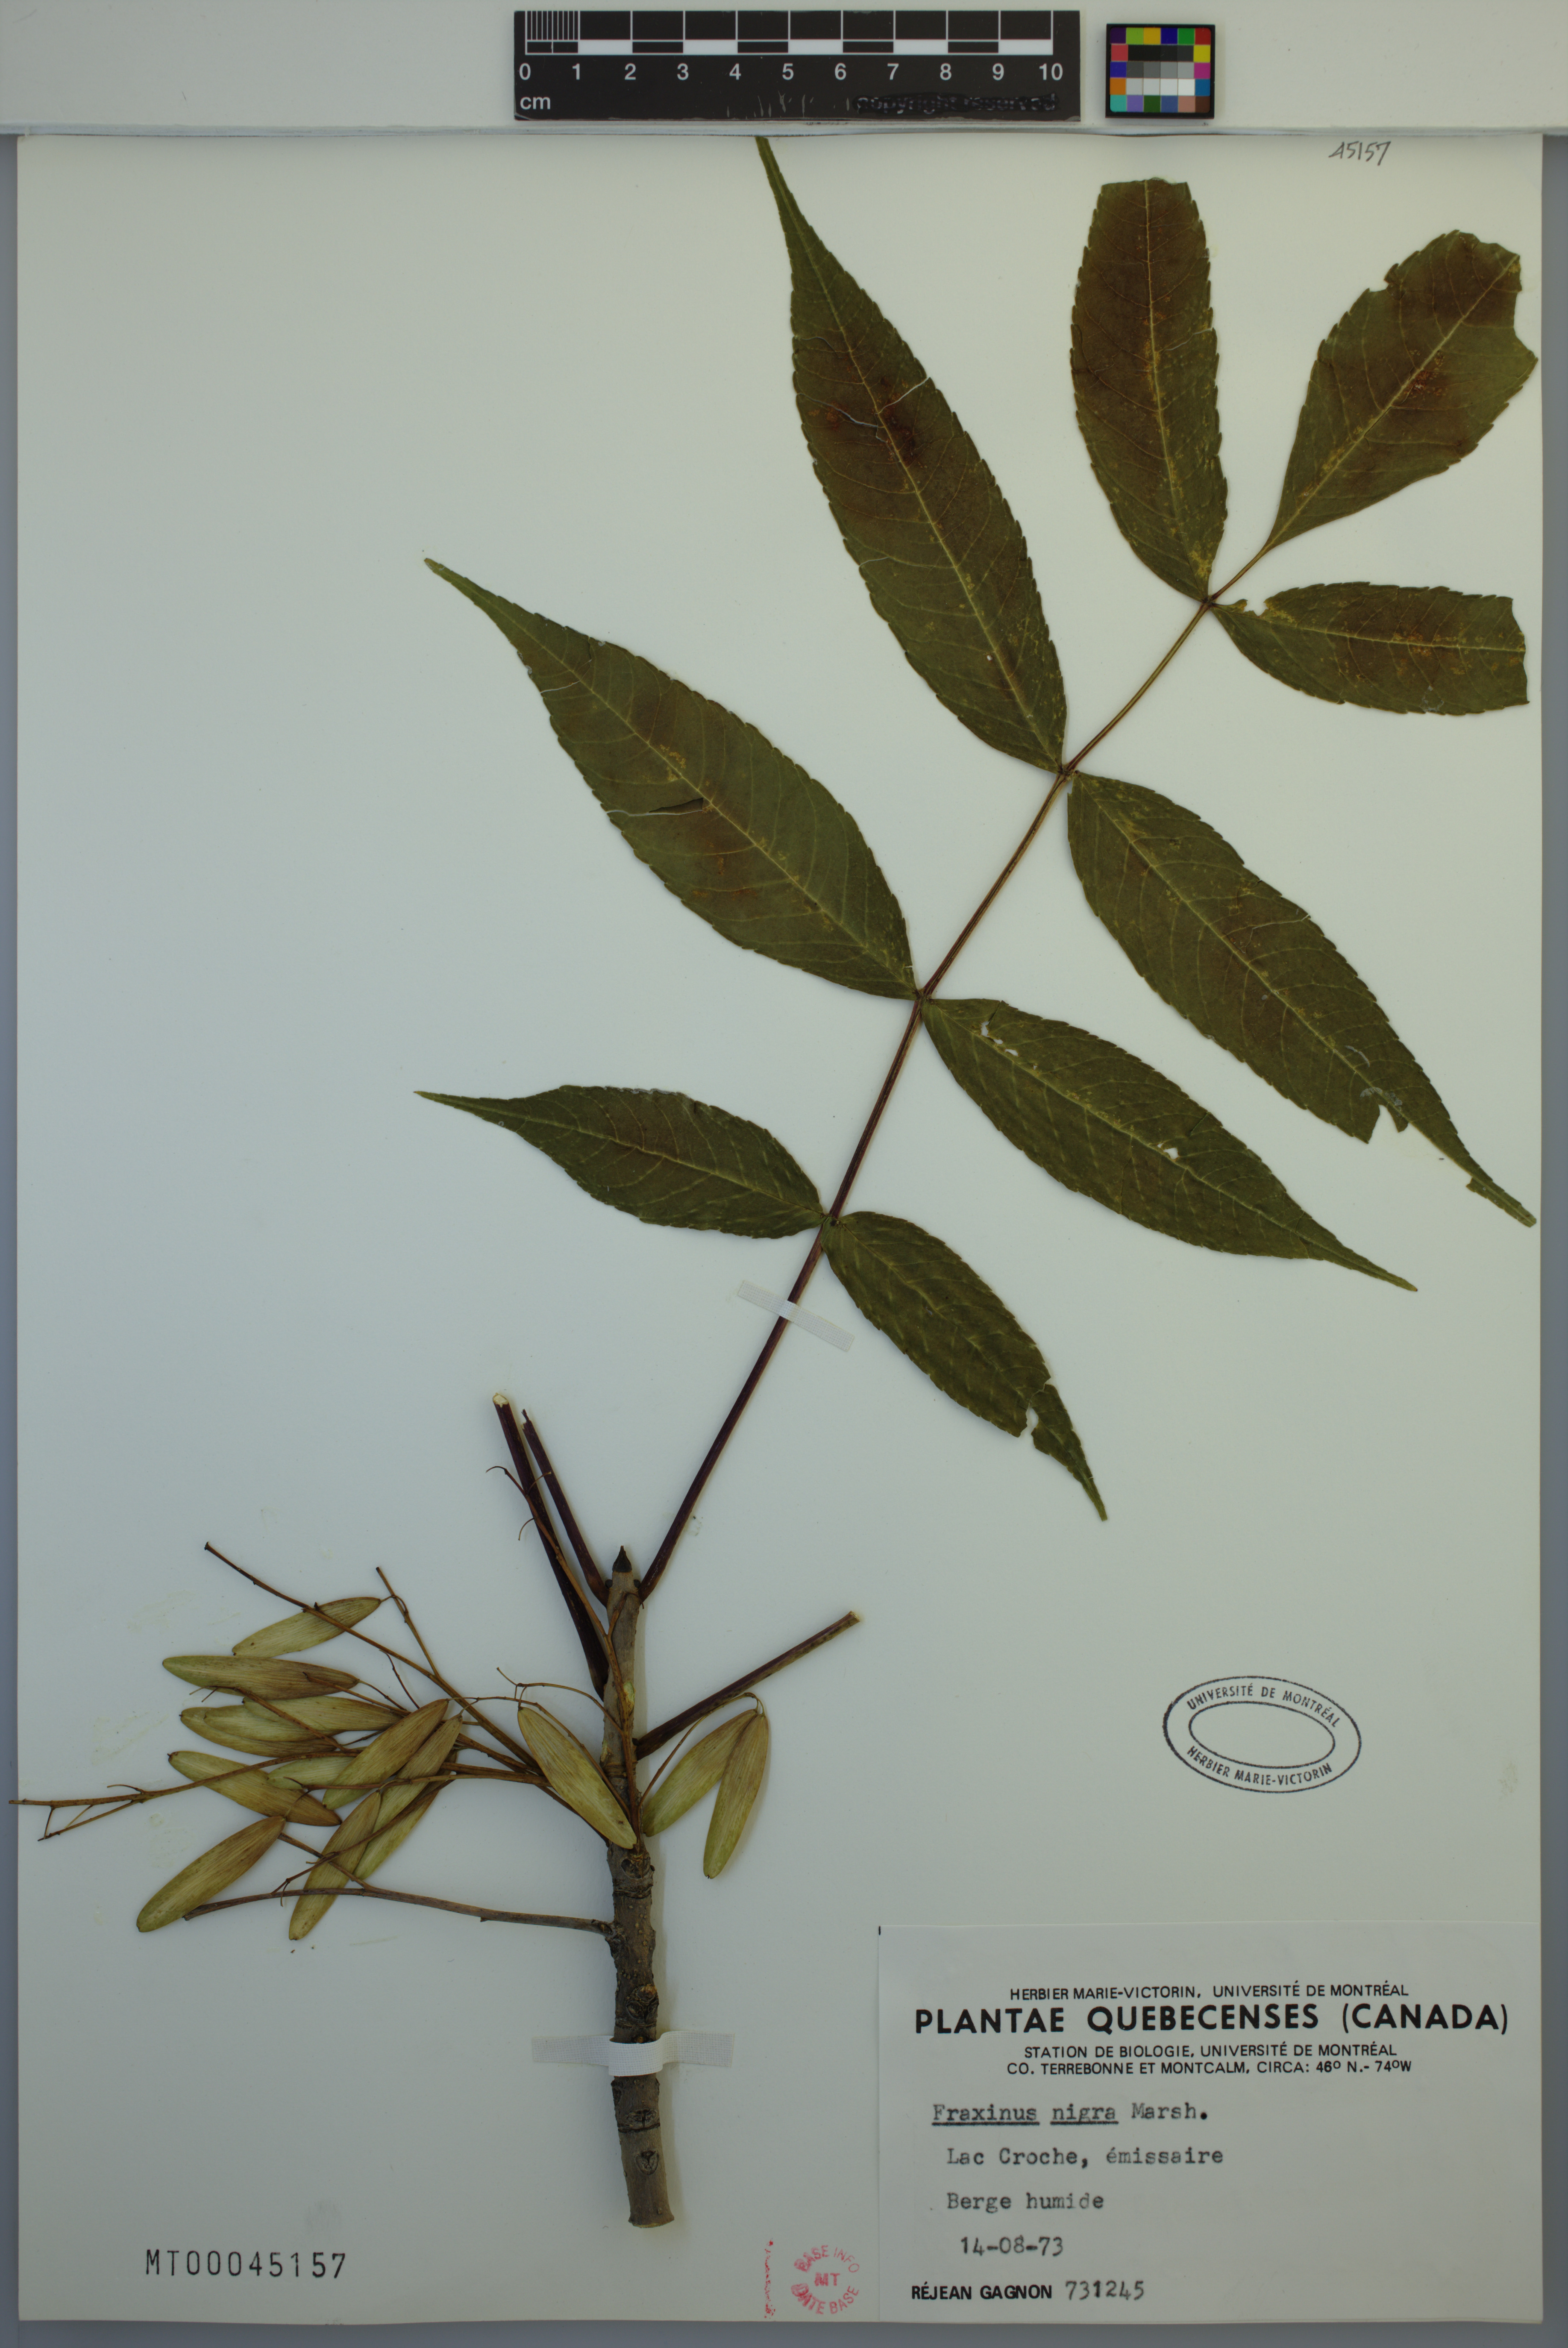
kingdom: Plantae
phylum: Tracheophyta
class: Magnoliopsida
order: Lamiales
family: Oleaceae
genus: Fraxinus
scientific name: Fraxinus nigra
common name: Black ash
